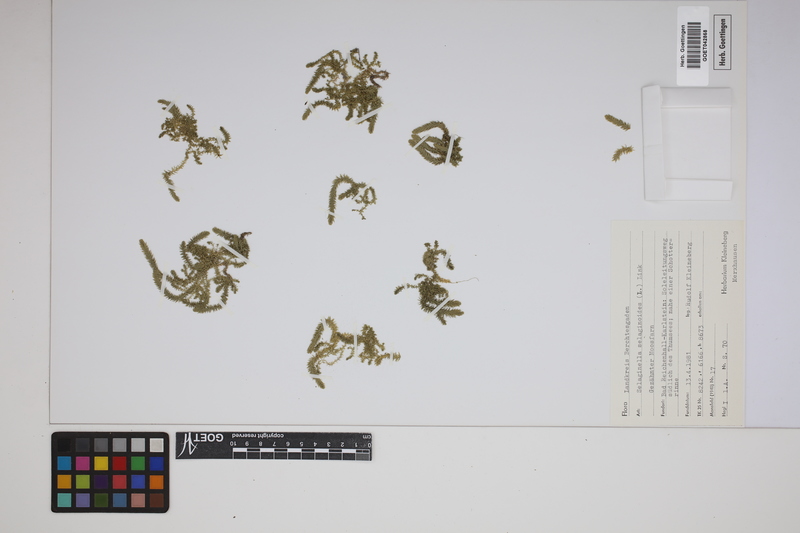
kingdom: Plantae
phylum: Tracheophyta
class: Lycopodiopsida
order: Selaginellales
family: Selaginellaceae
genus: Selaginella
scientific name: Selaginella selaginoides
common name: Prickly mountain-moss
